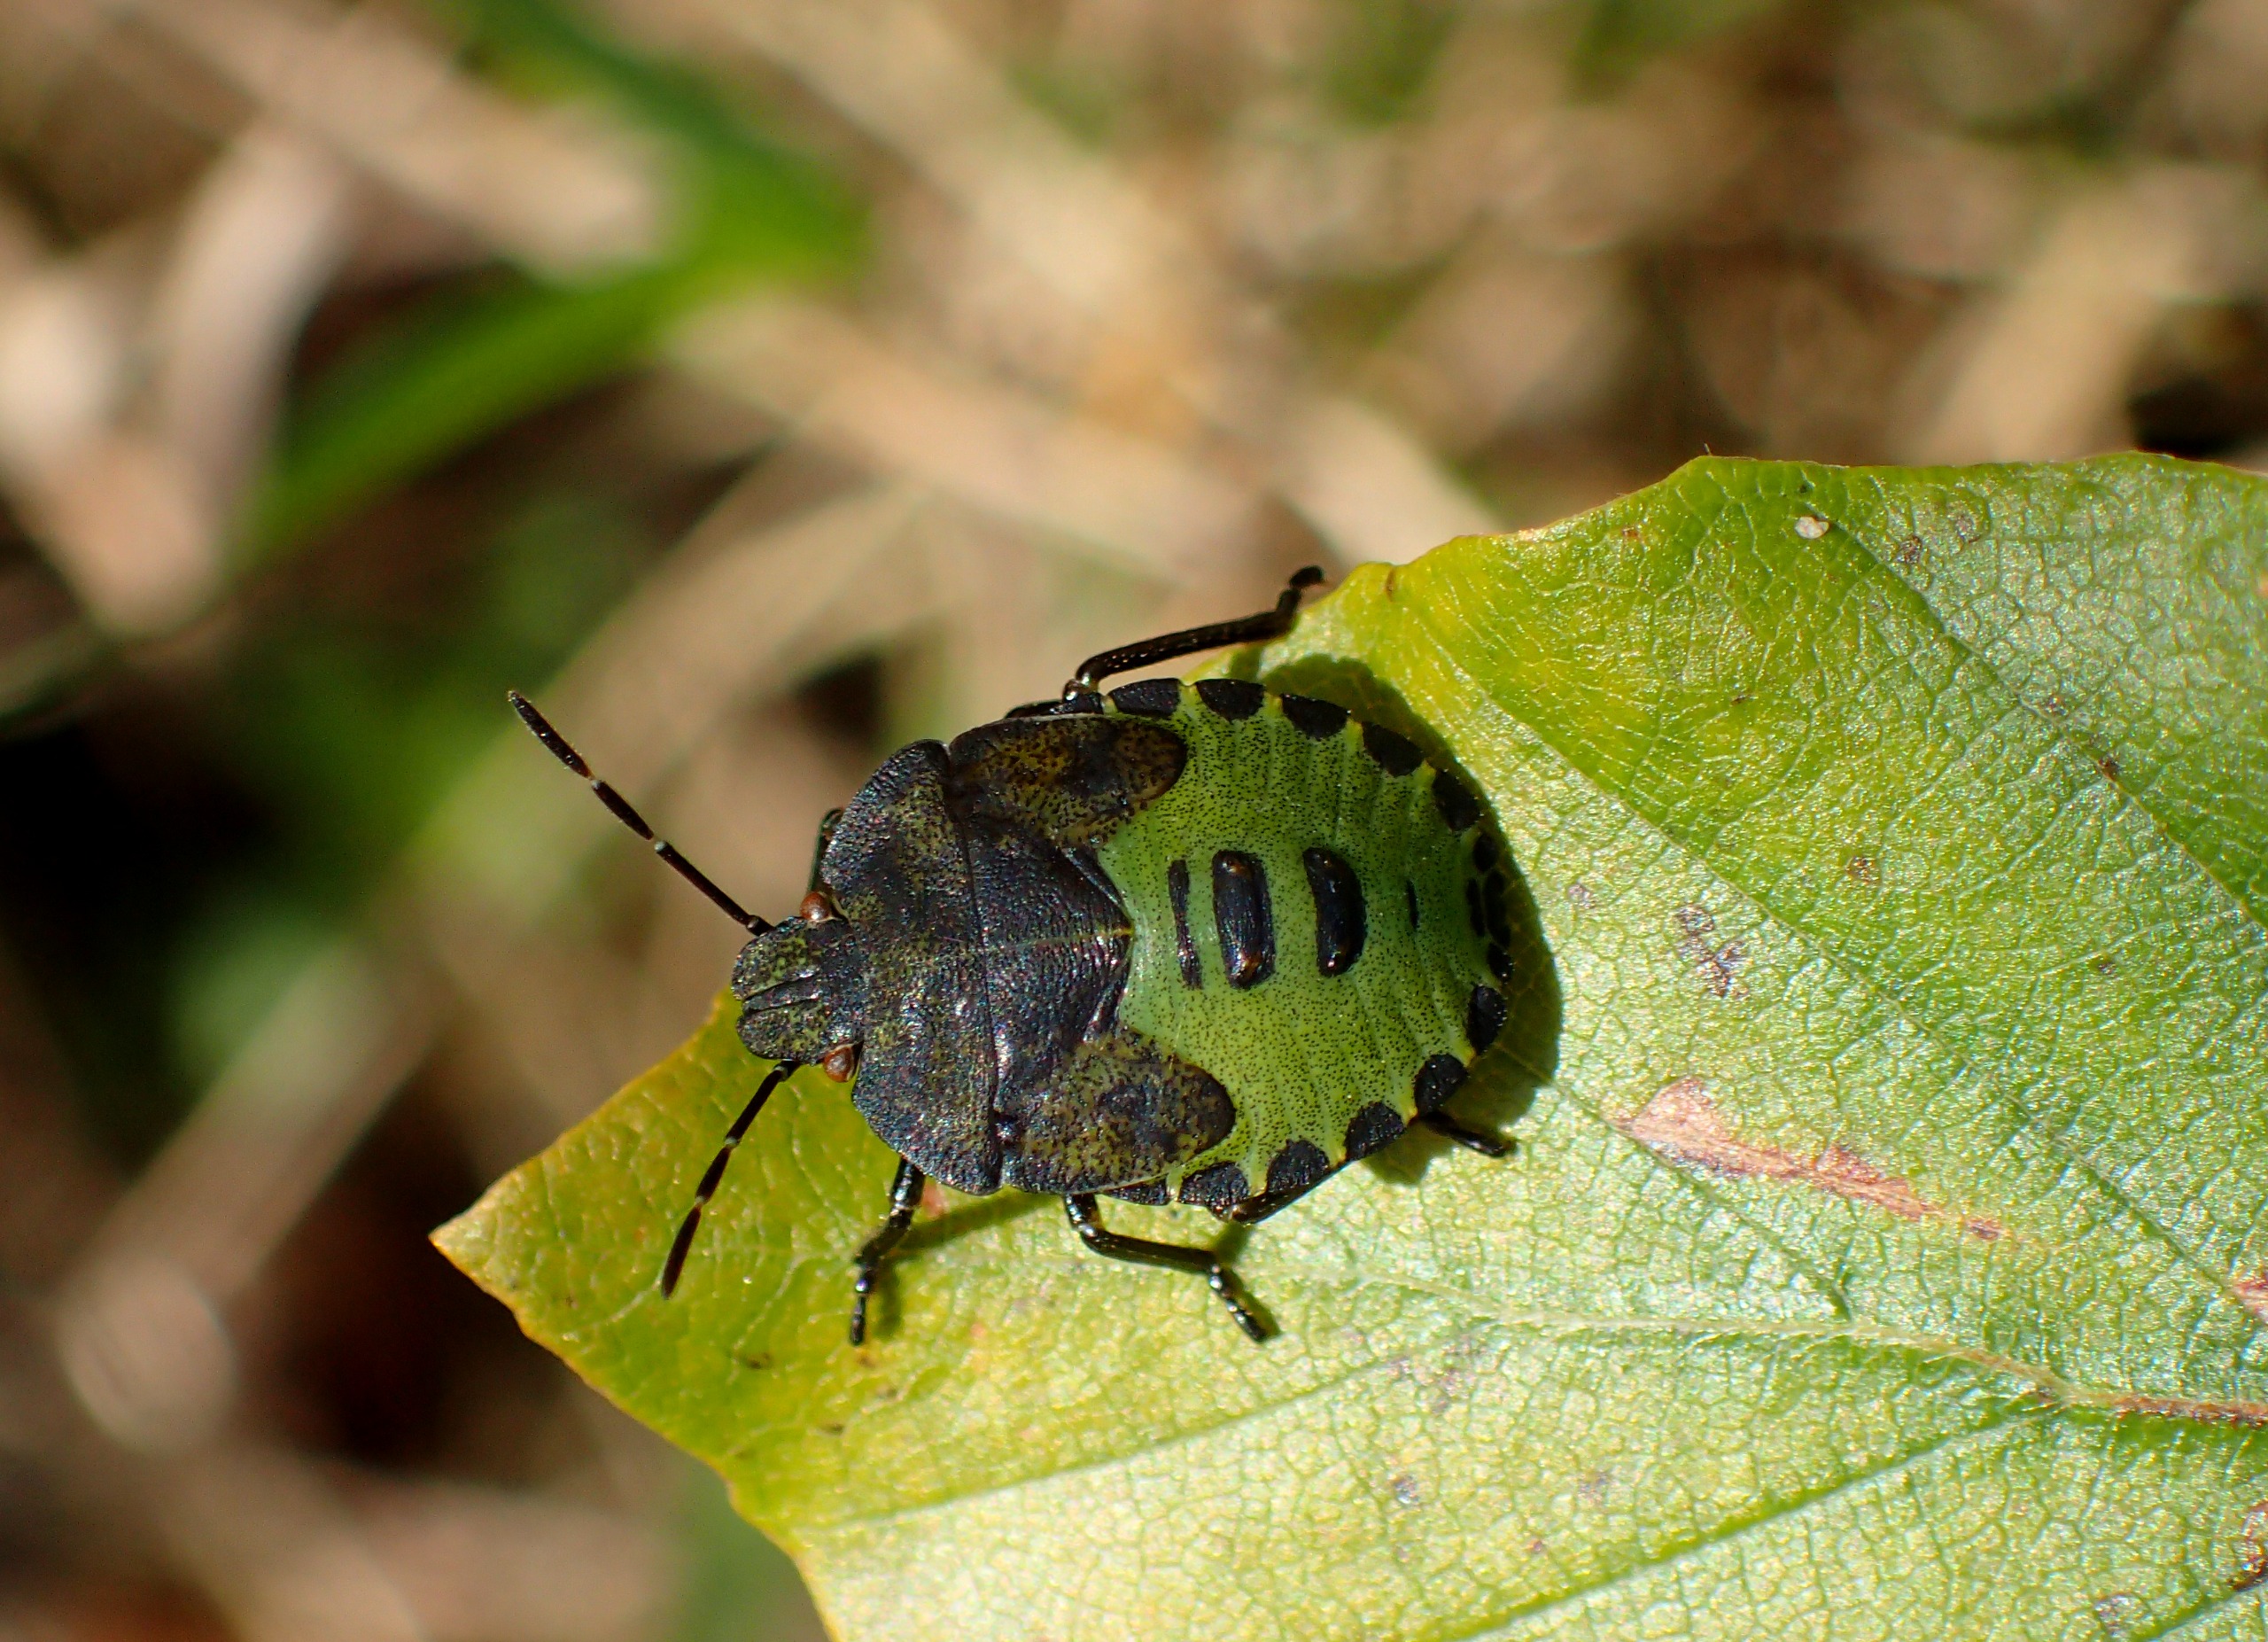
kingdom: Animalia
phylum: Arthropoda
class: Insecta
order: Hemiptera
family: Pentatomidae
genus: Palomena
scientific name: Palomena prasina
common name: Grøn bredtæge
